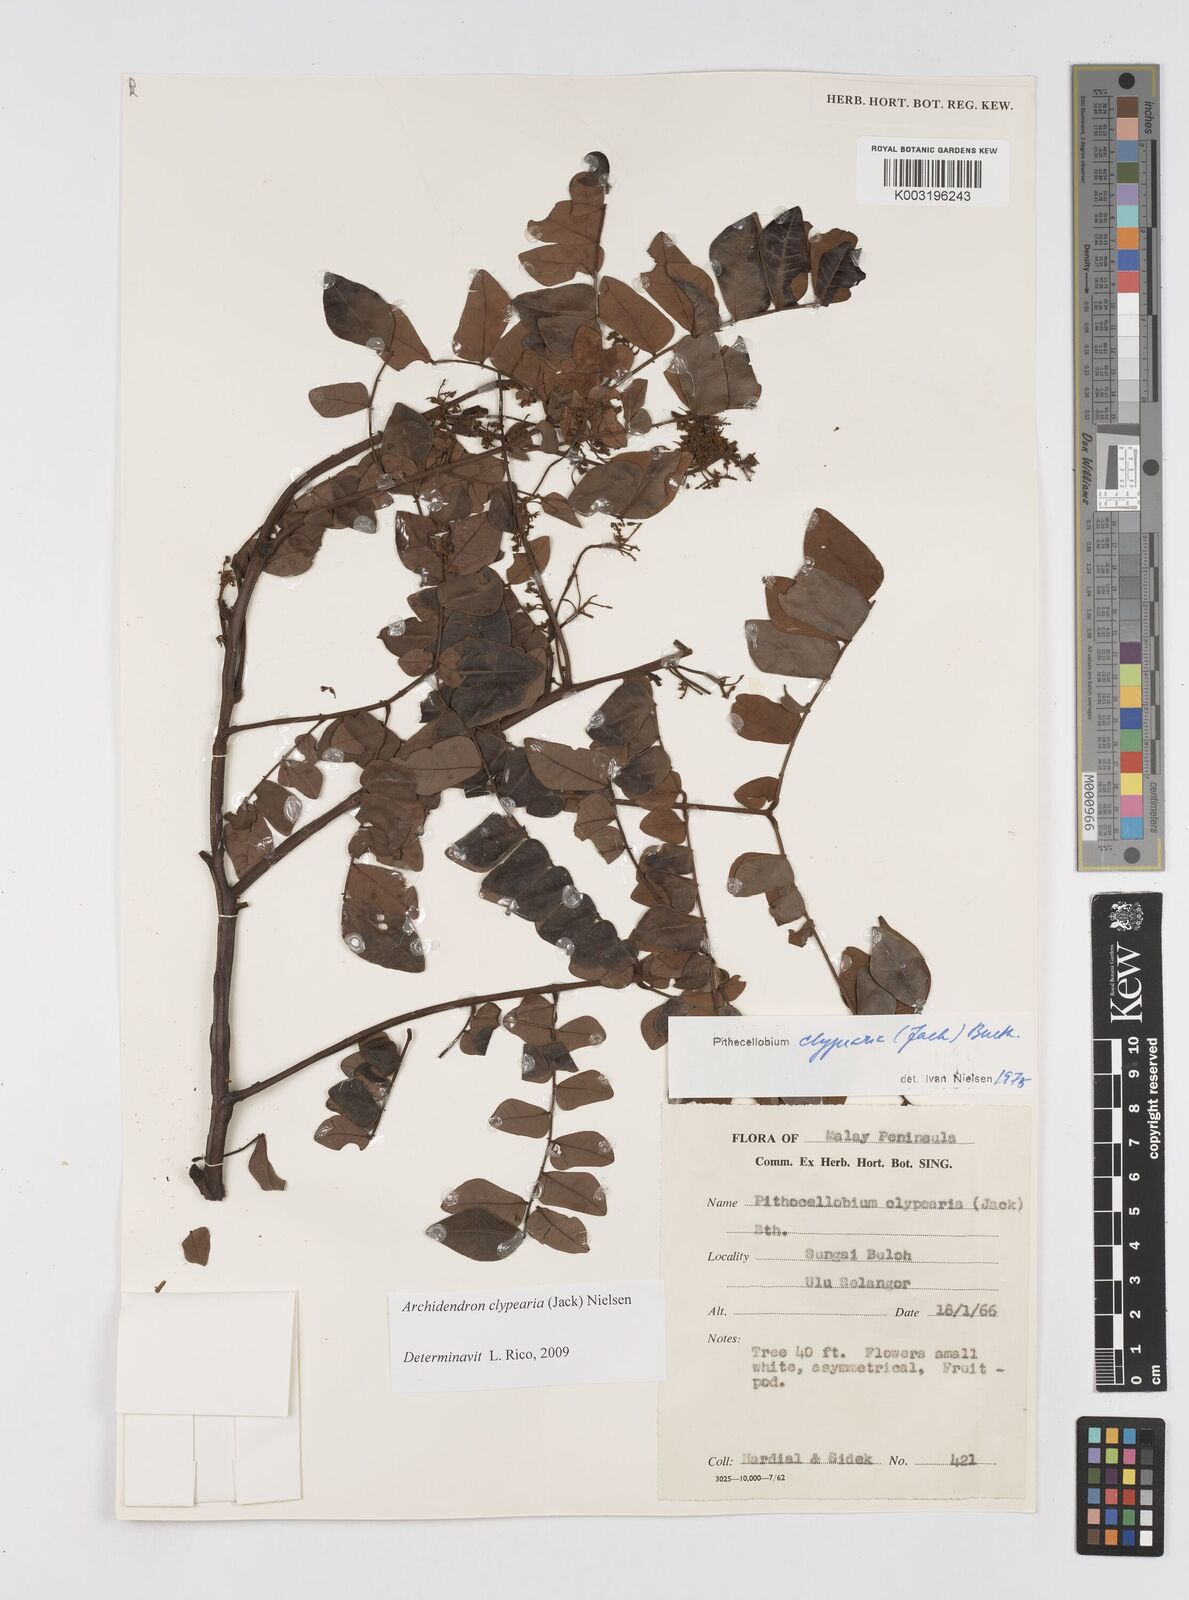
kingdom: Plantae
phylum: Tracheophyta
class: Magnoliopsida
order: Fabales
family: Fabaceae
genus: Archidendron
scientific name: Archidendron clypearia
